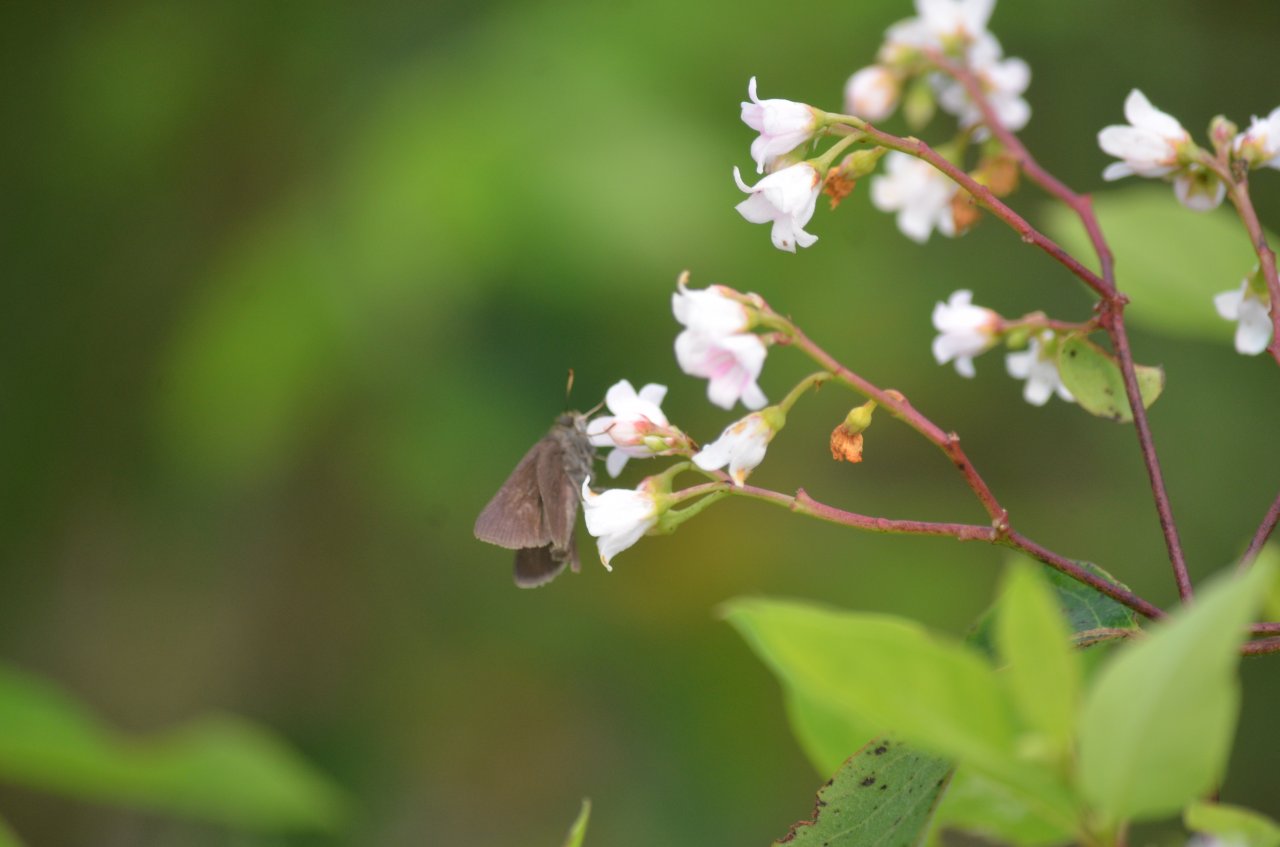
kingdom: Animalia
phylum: Arthropoda
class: Insecta
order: Lepidoptera
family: Hesperiidae
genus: Euphyes
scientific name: Euphyes vestris
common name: Dun Skipper
